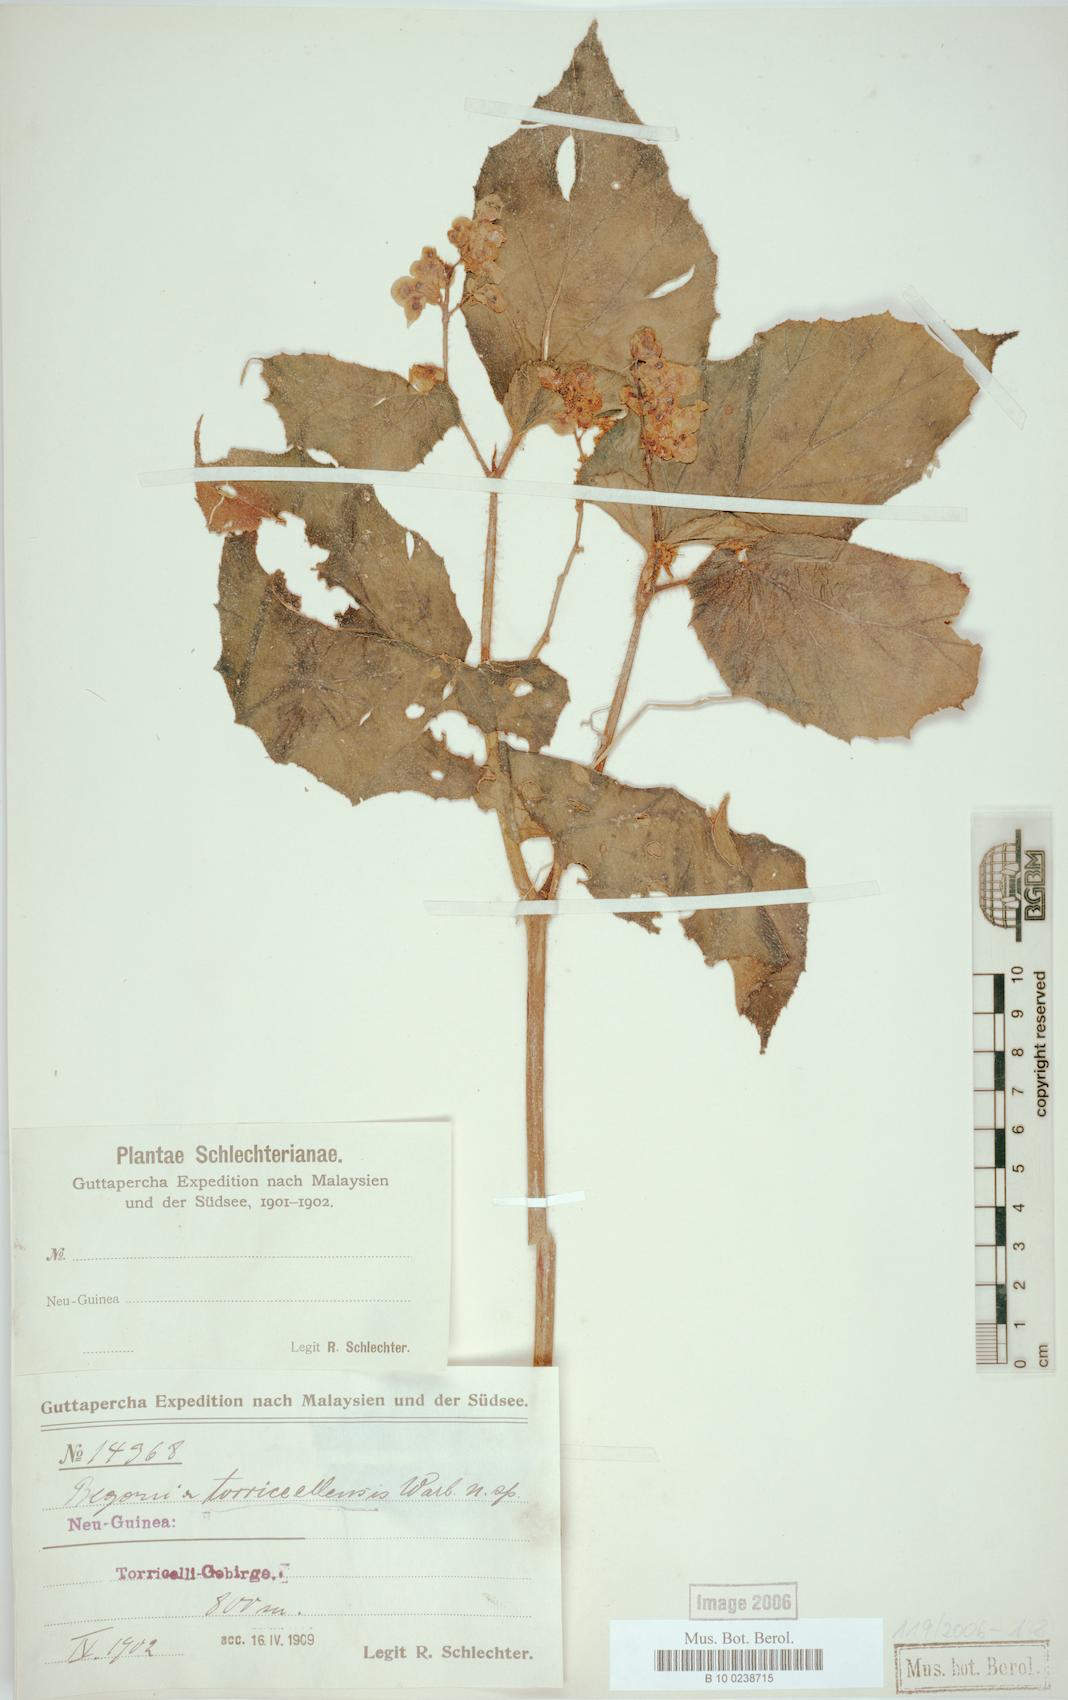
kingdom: Plantae
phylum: Tracheophyta
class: Magnoliopsida
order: Cucurbitales
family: Begoniaceae
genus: Begonia
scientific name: Begonia torricellensis
